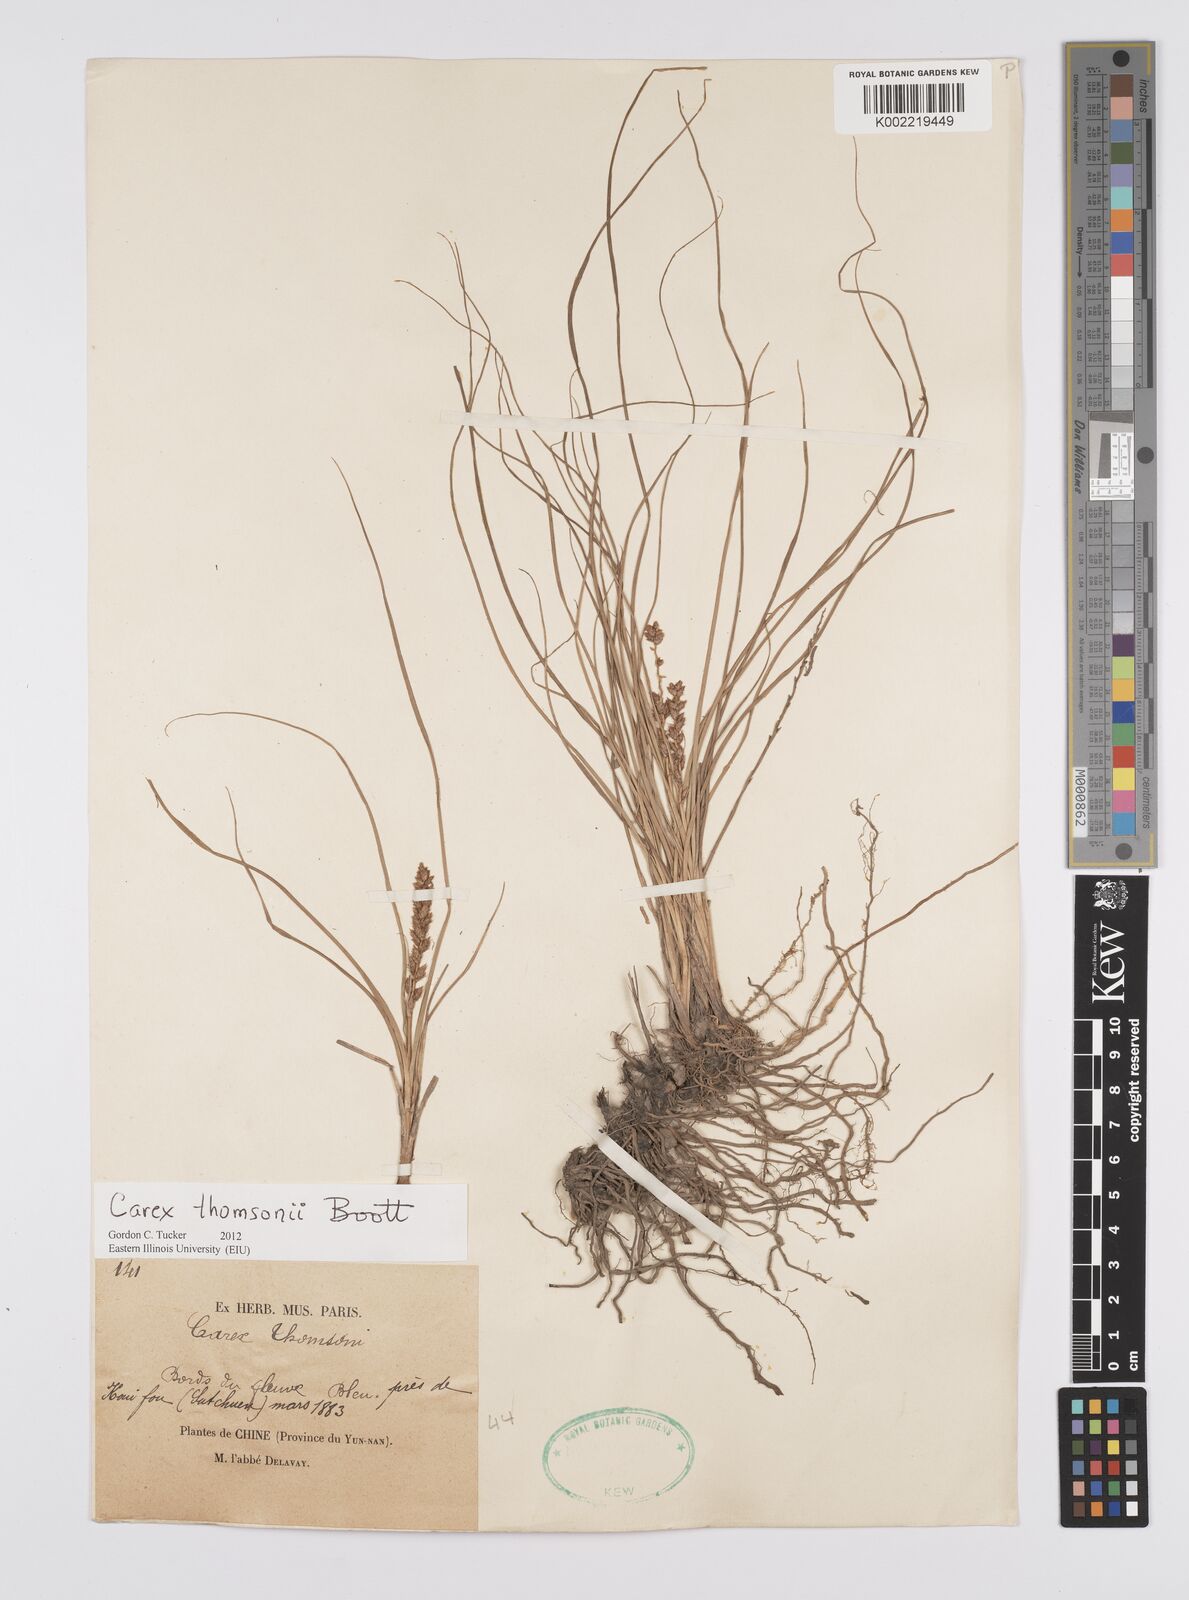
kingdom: Plantae
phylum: Tracheophyta
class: Liliopsida
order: Poales
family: Cyperaceae
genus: Carex
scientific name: Carex thomsonii
